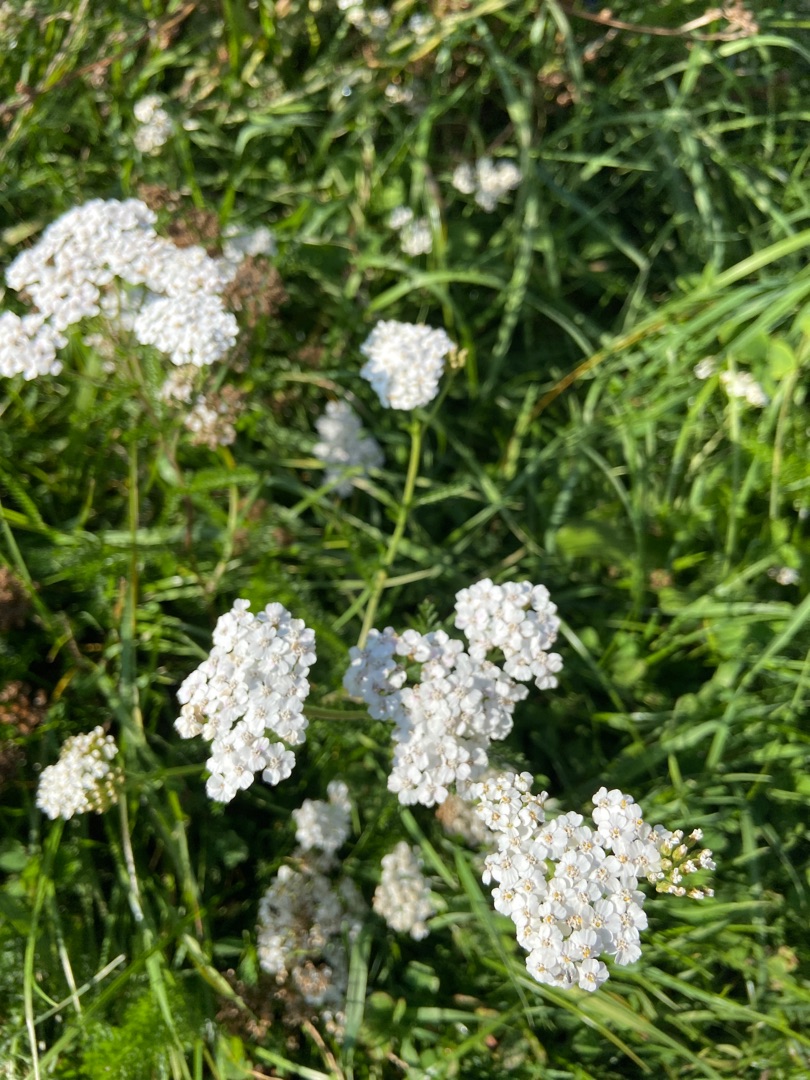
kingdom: Plantae
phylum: Tracheophyta
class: Magnoliopsida
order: Asterales
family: Asteraceae
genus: Achillea
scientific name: Achillea millefolium
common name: Almindelig røllike
